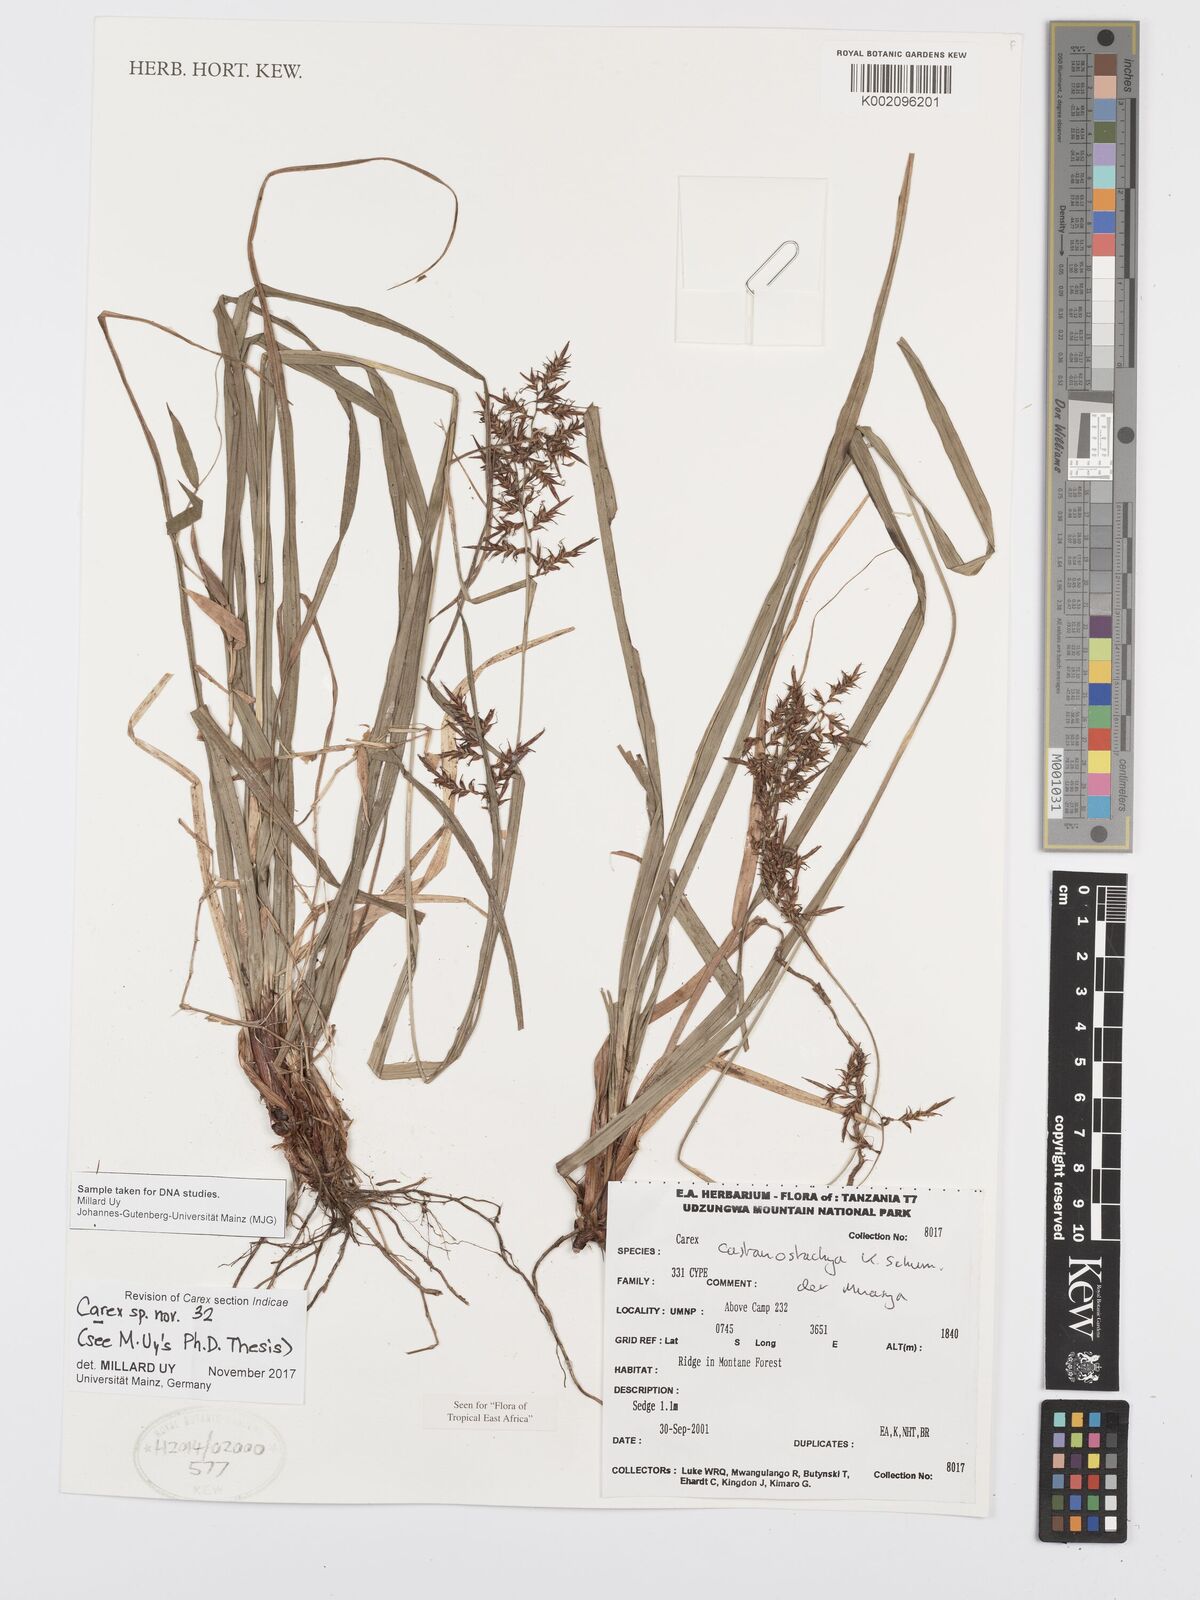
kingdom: Plantae
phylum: Tracheophyta
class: Liliopsida
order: Poales
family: Cyperaceae
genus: Carex
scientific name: Carex
